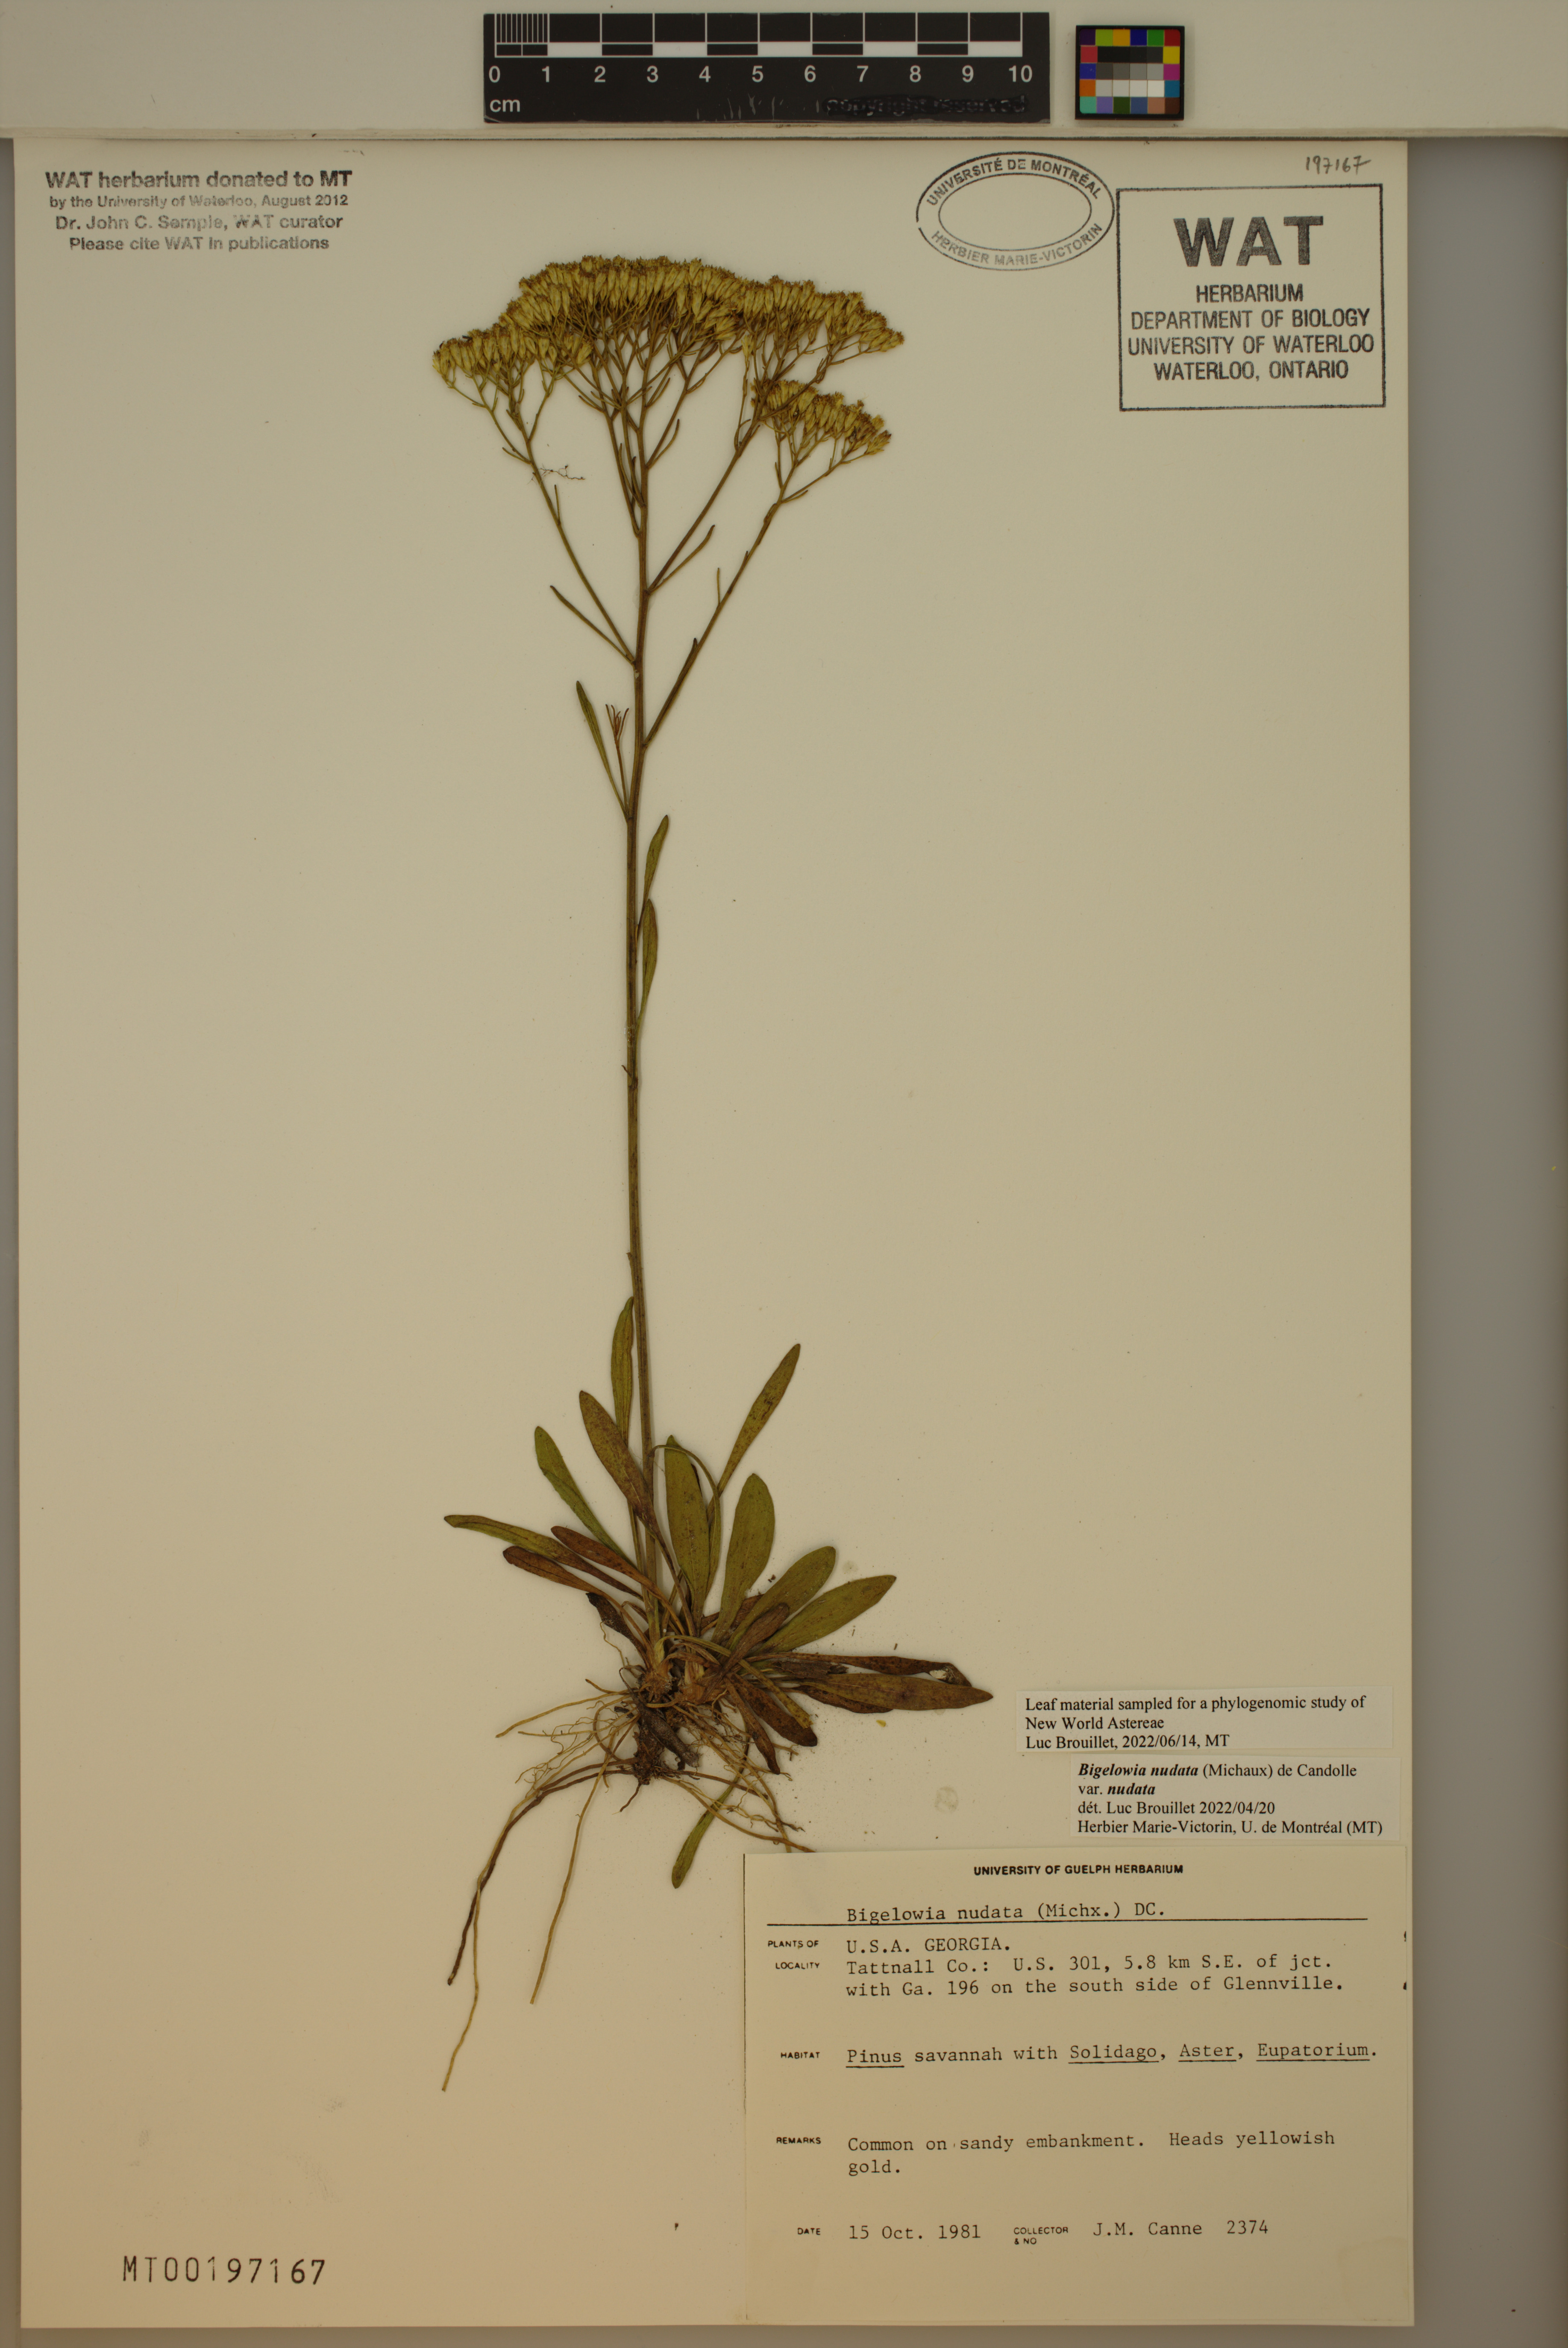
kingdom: Plantae
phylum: Tracheophyta
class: Magnoliopsida
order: Asterales
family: Asteraceae
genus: Bigelowia
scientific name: Bigelowia nudata
